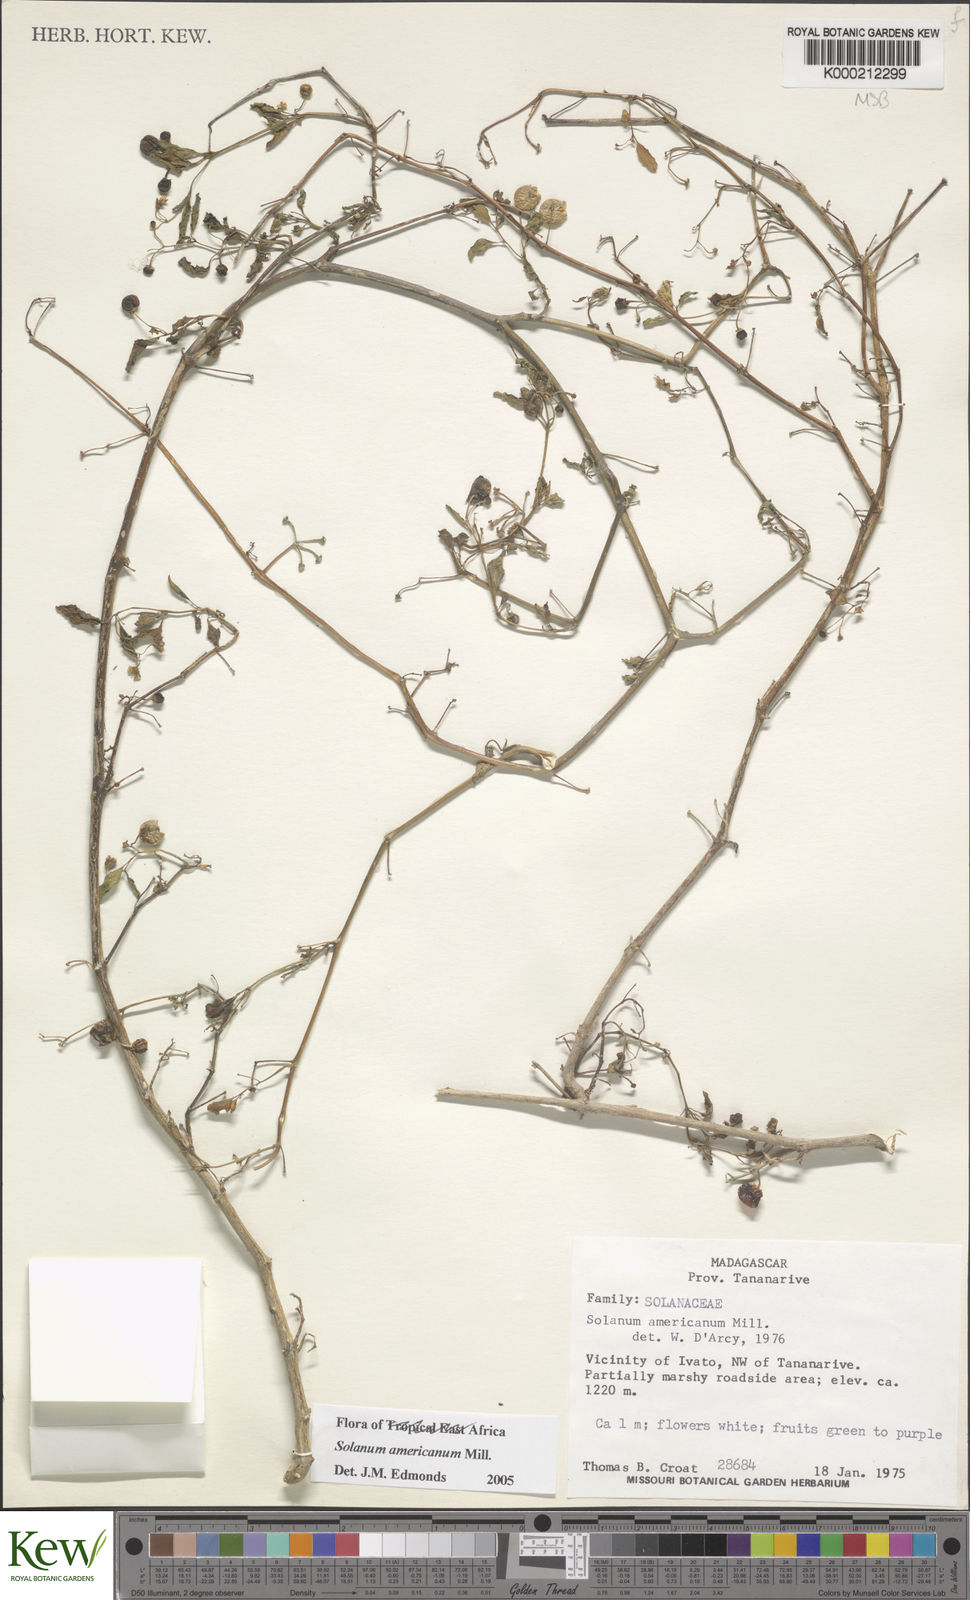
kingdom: Plantae
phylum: Tracheophyta
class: Magnoliopsida
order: Solanales
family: Solanaceae
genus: Solanum
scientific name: Solanum americanum
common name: American black nightshade
